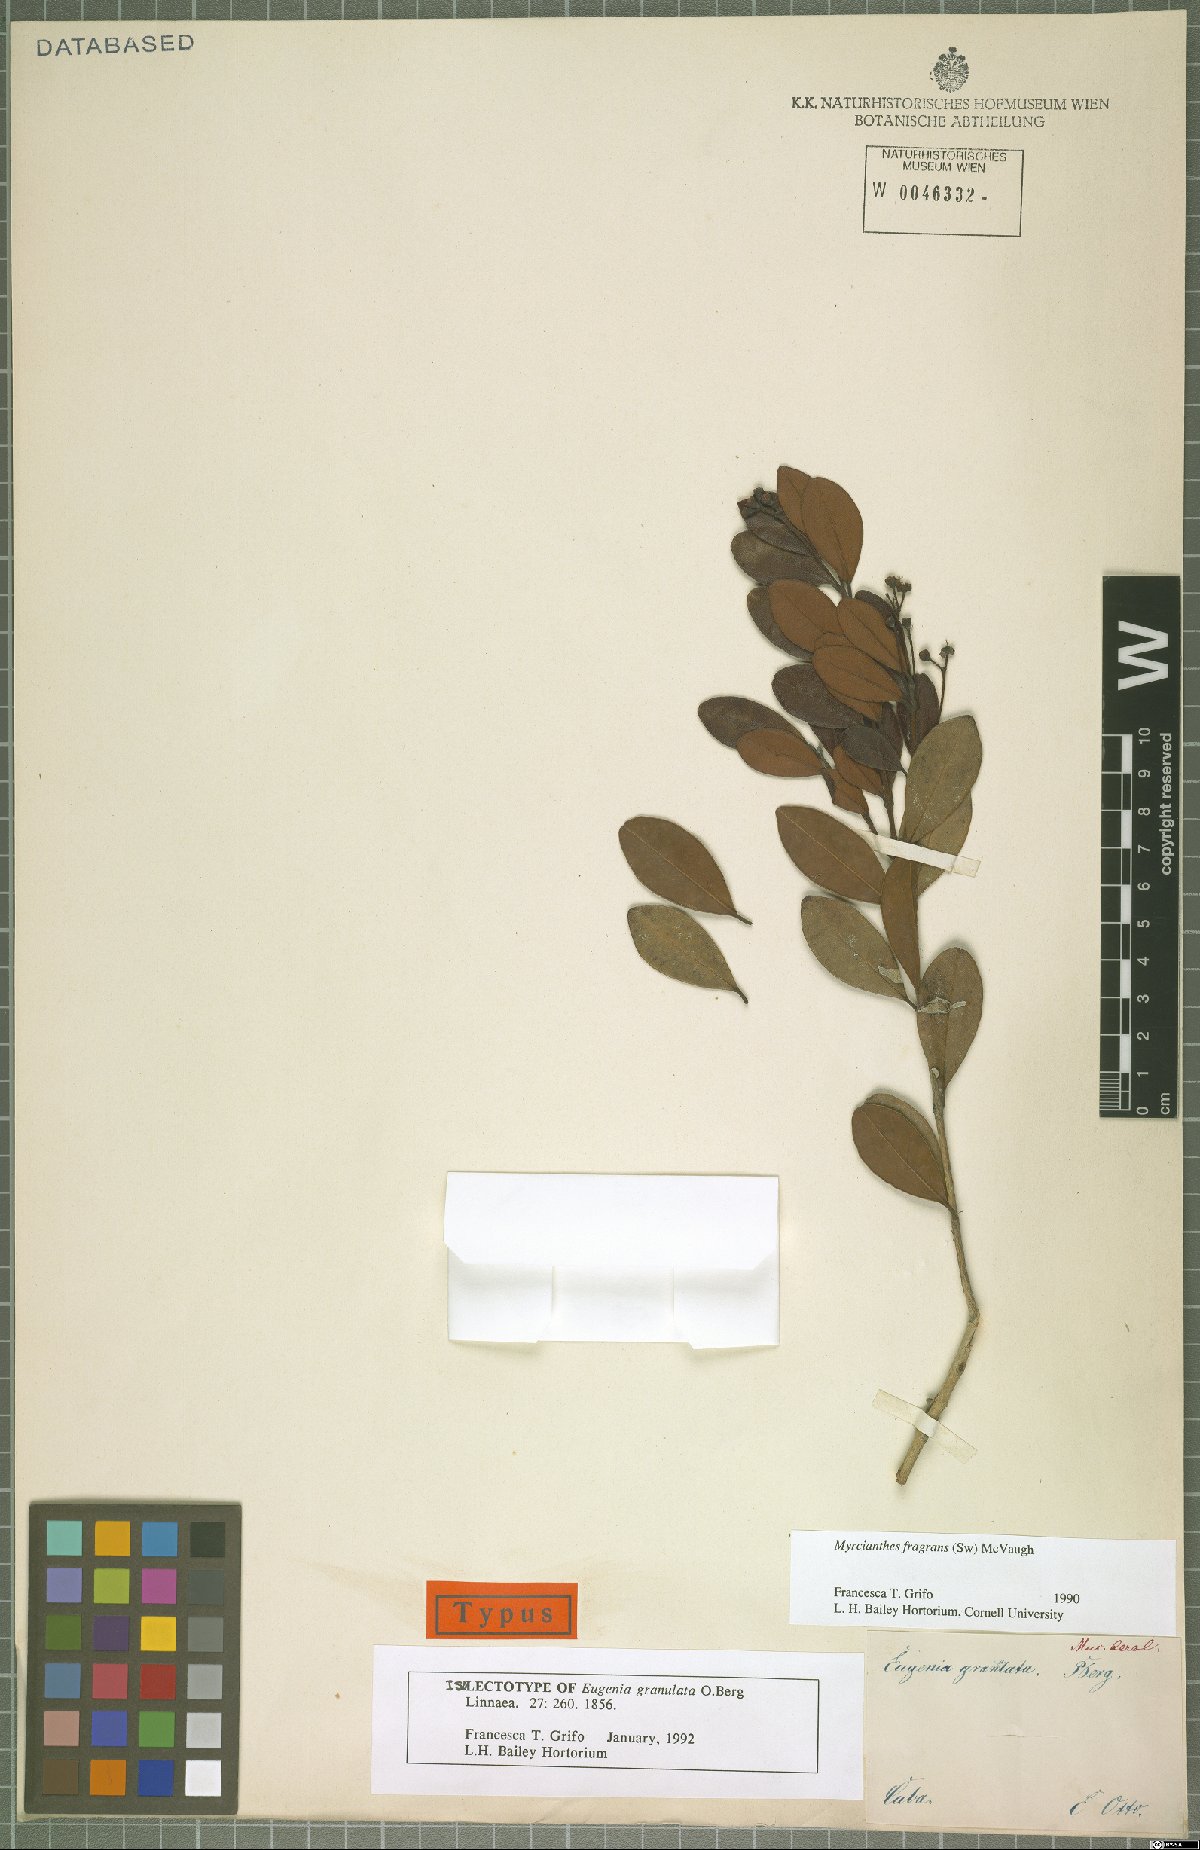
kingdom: Plantae
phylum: Tracheophyta
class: Magnoliopsida
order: Myrtales
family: Myrtaceae
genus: Myrcianthes
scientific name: Myrcianthes fragrans
